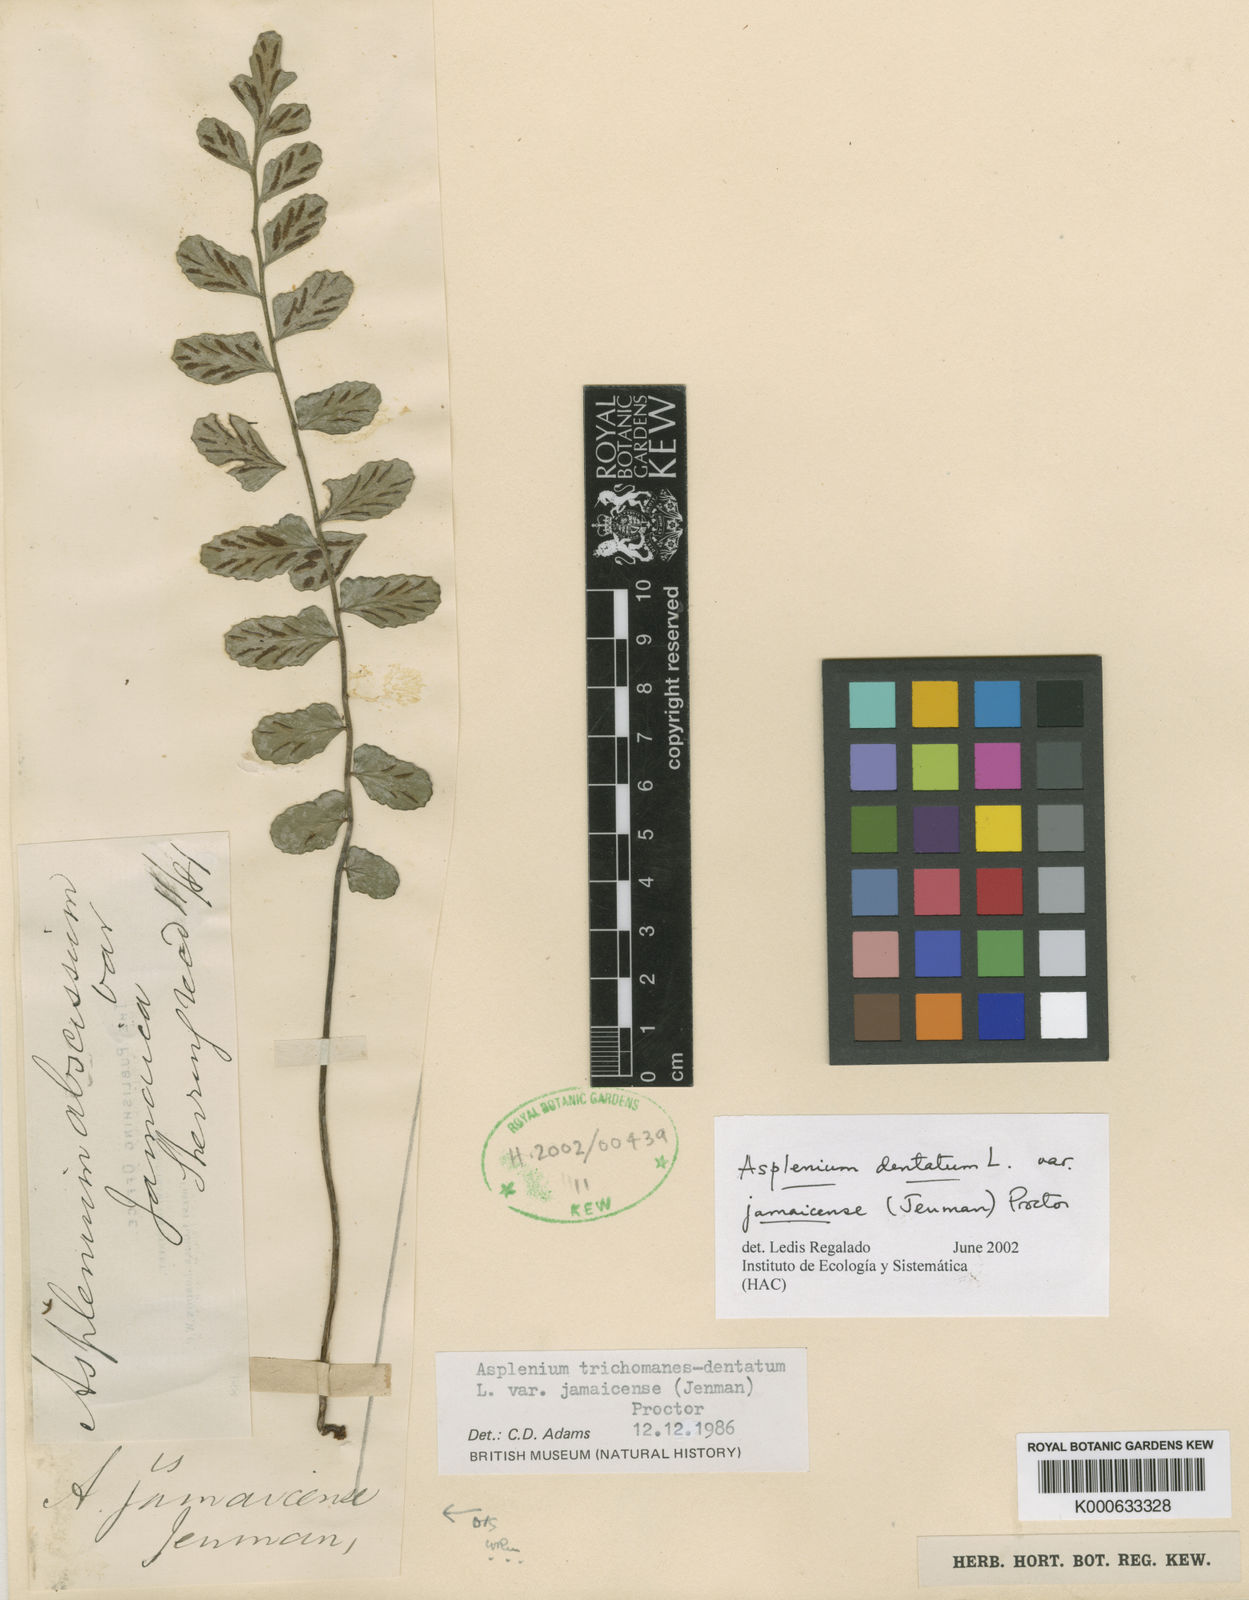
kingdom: Plantae
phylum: Tracheophyta
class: Polypodiopsida
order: Polypodiales
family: Aspleniaceae
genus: Asplenium
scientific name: Asplenium dentatum
